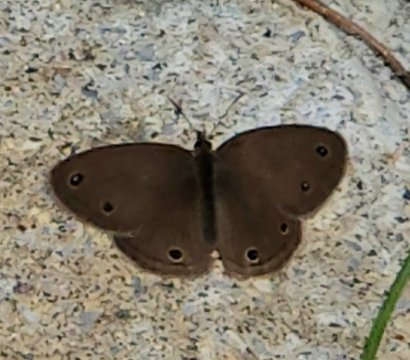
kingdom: Animalia
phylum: Arthropoda
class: Insecta
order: Lepidoptera
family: Nymphalidae
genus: Euptychia
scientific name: Euptychia cymela
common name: Little Wood Satyr
